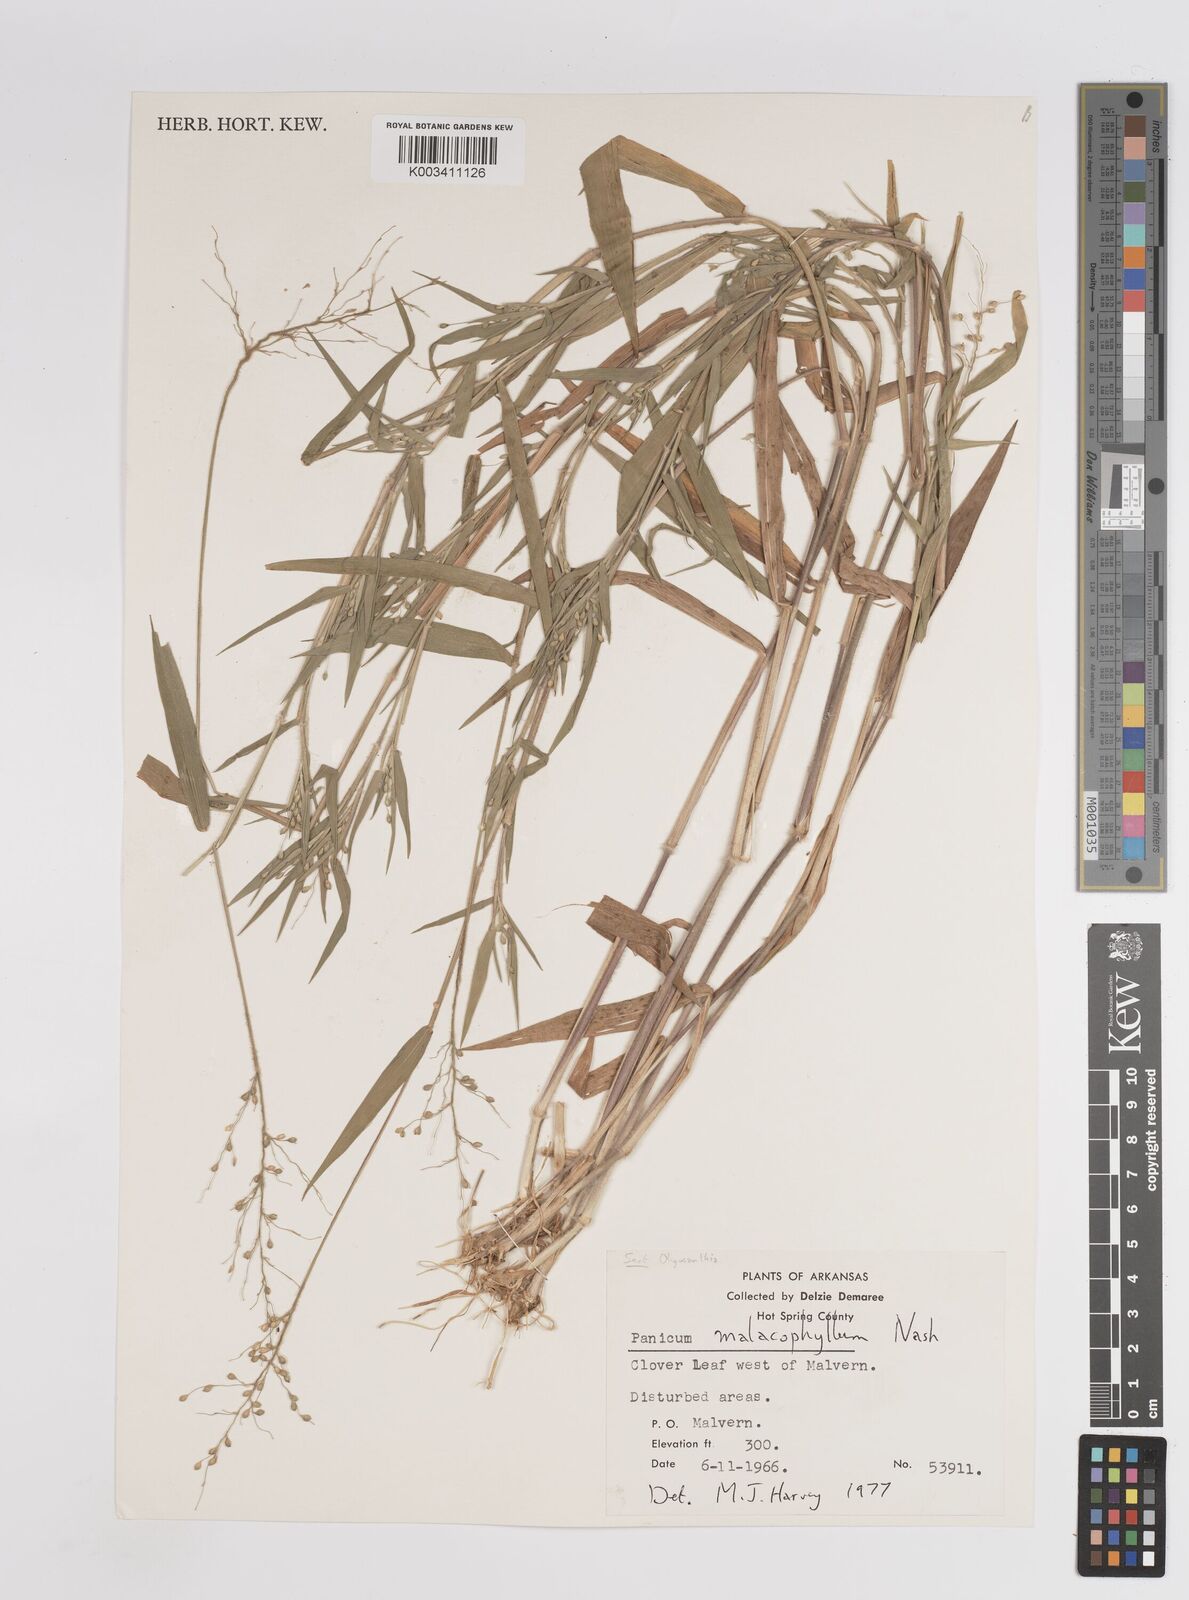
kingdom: Plantae
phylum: Tracheophyta
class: Liliopsida
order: Poales
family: Poaceae
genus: Dichanthelium
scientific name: Dichanthelium malacophyllum
